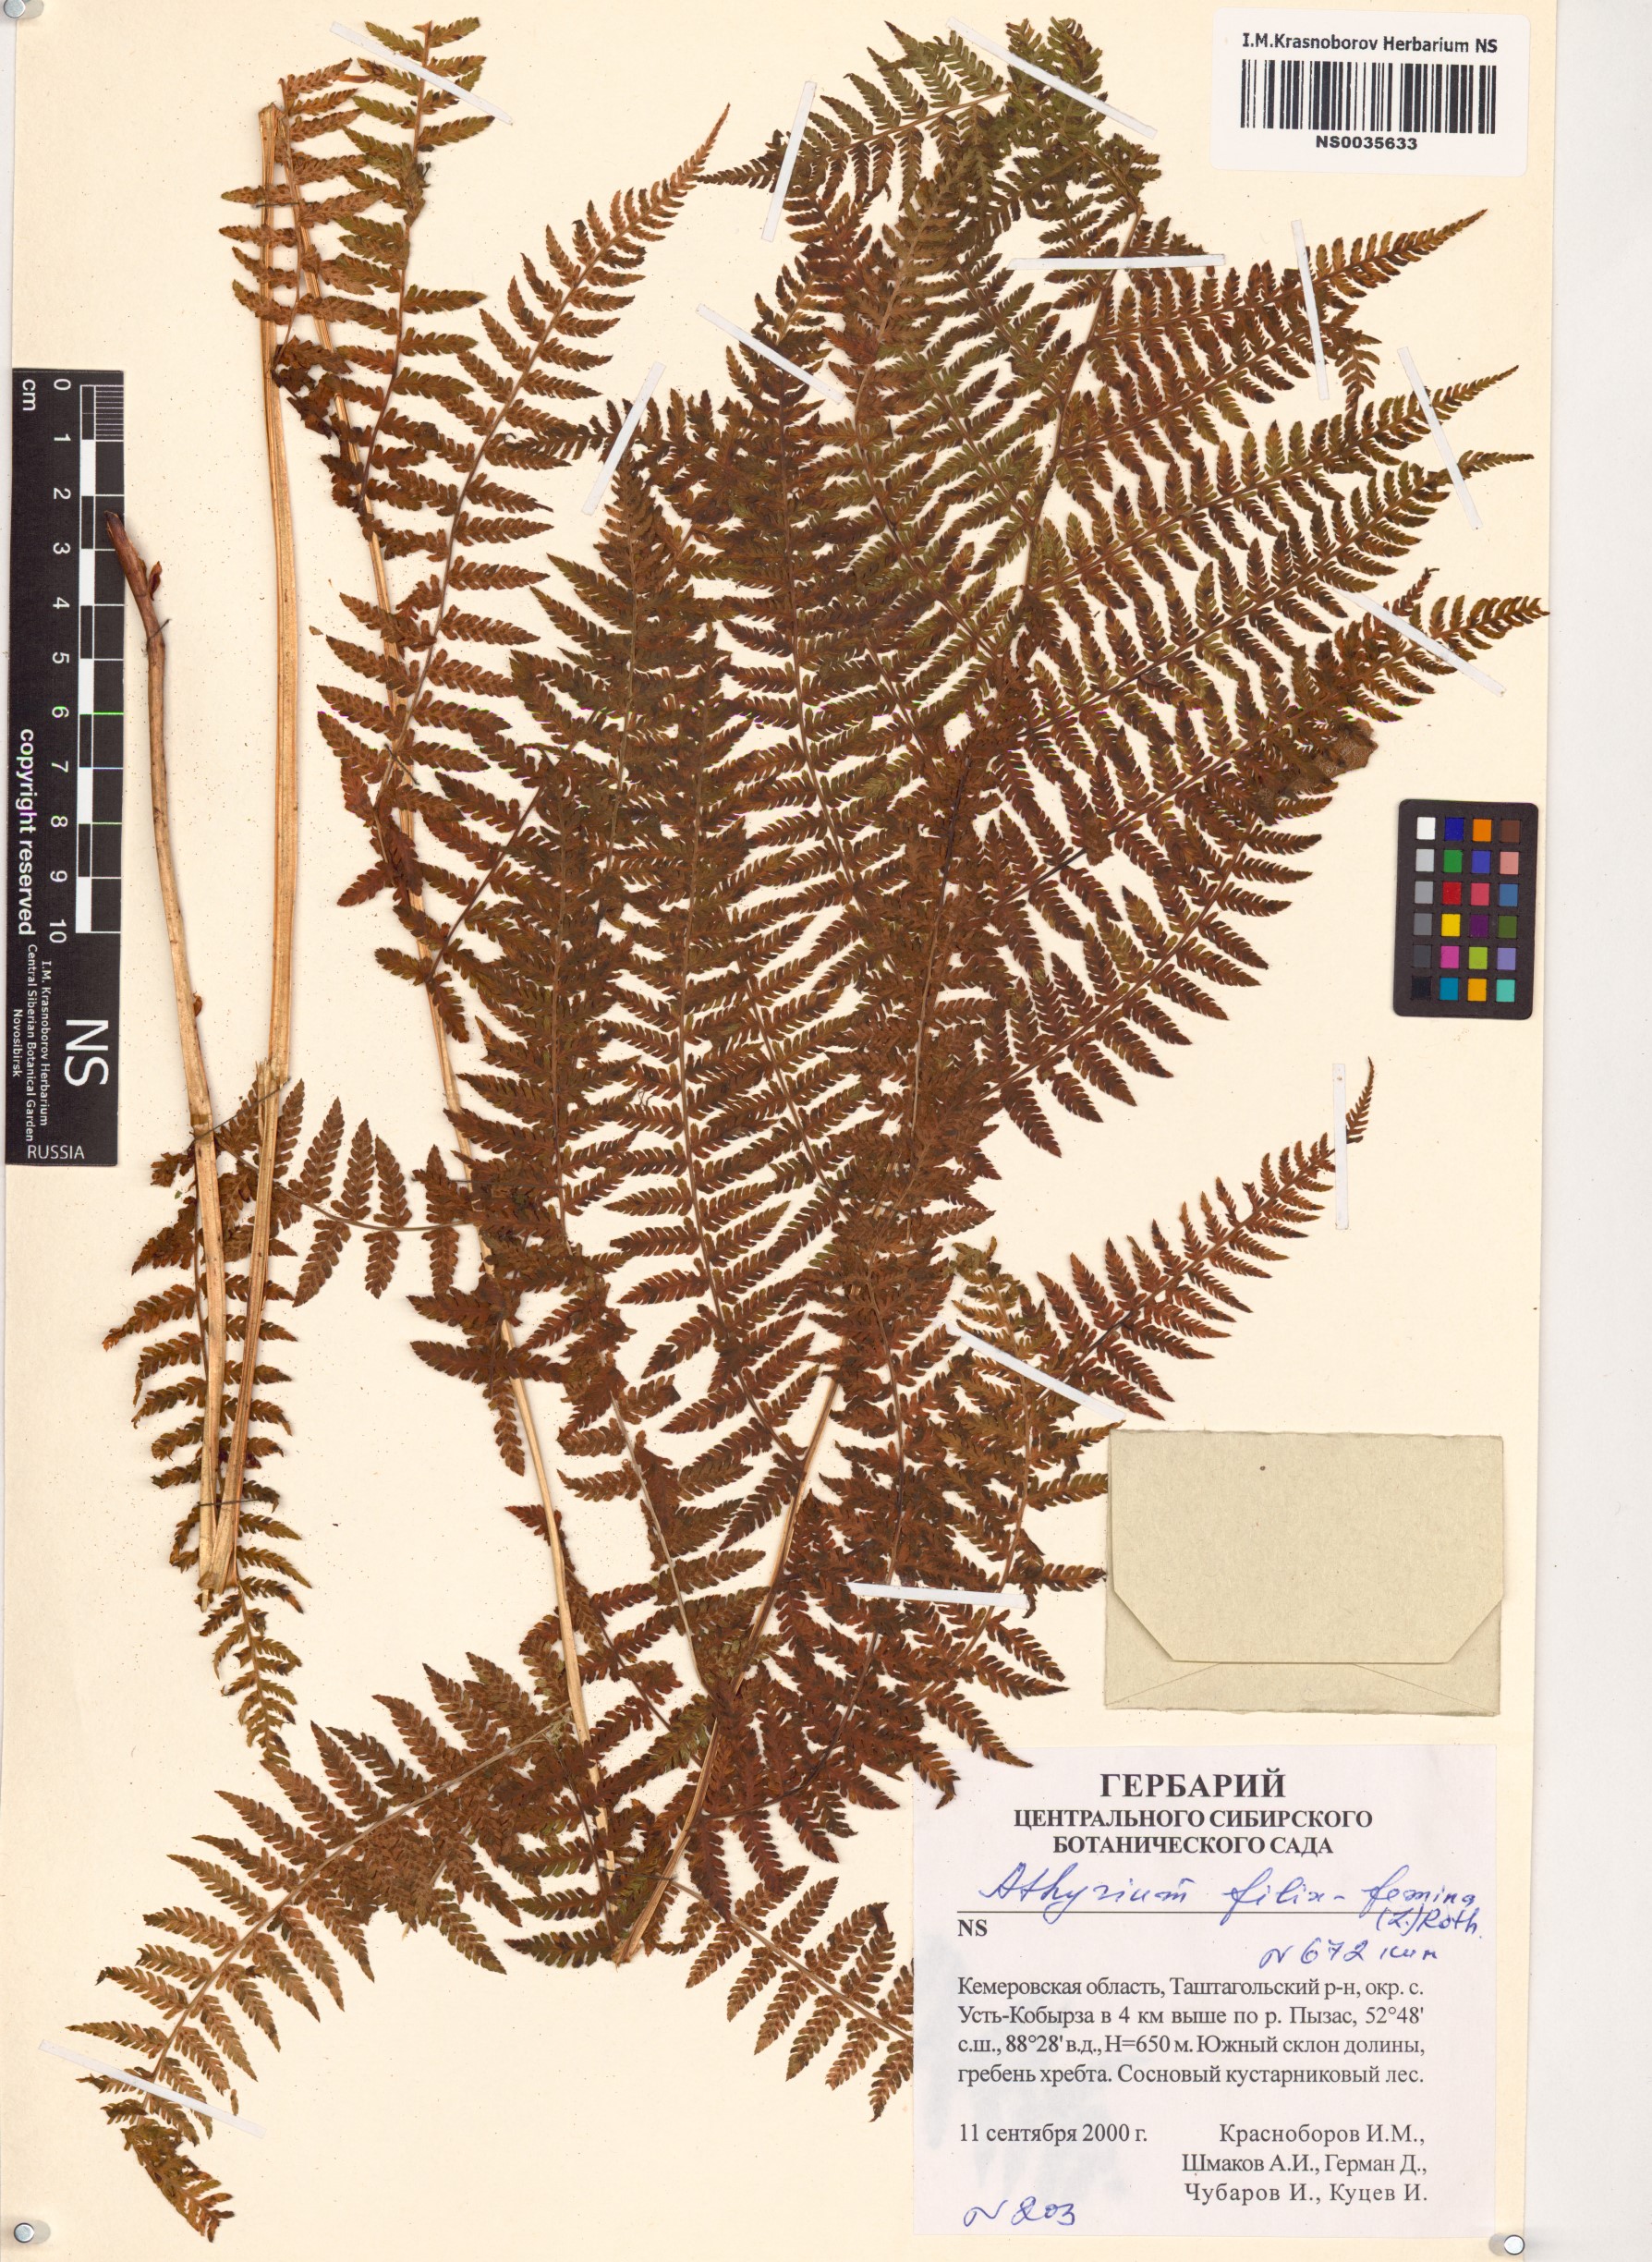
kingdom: Plantae
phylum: Tracheophyta
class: Polypodiopsida
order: Polypodiales
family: Athyriaceae
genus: Athyrium
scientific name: Athyrium filix-femina
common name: Lady fern
